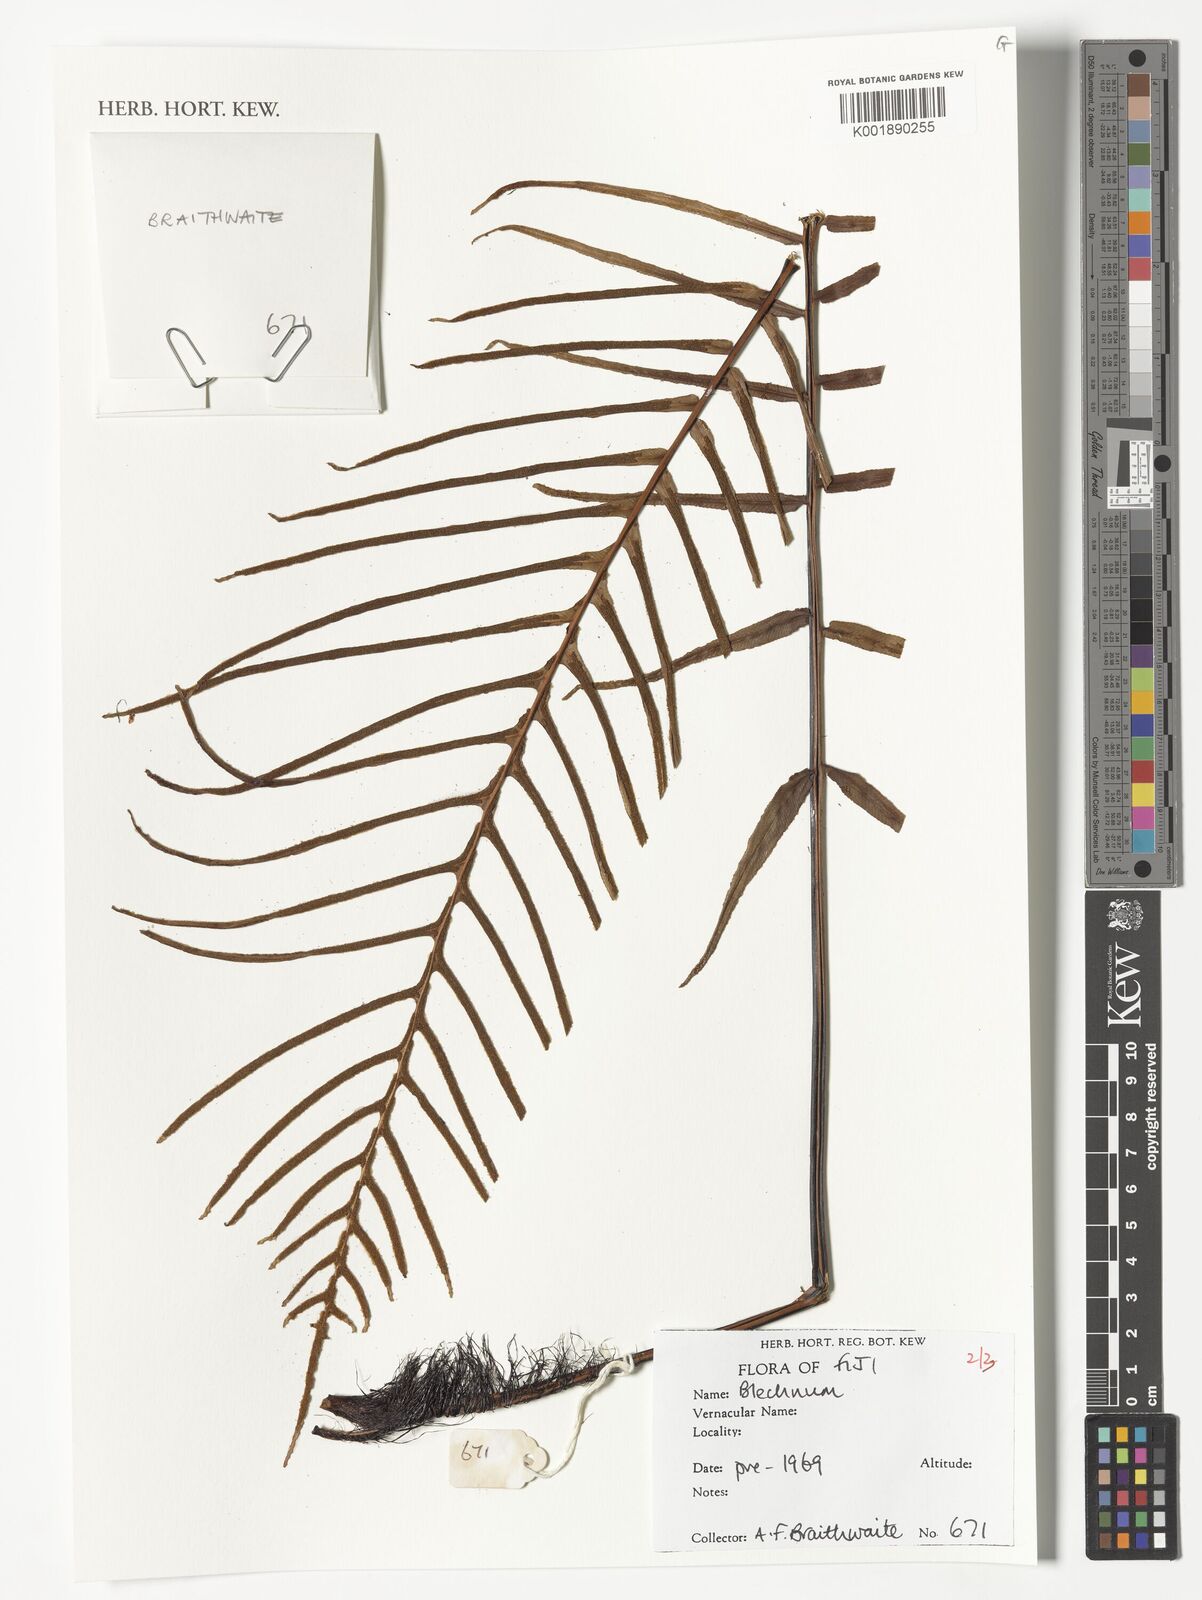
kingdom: Plantae
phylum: Tracheophyta
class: Polypodiopsida
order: Polypodiales
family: Blechnaceae
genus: Blechnum
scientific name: Blechnum
